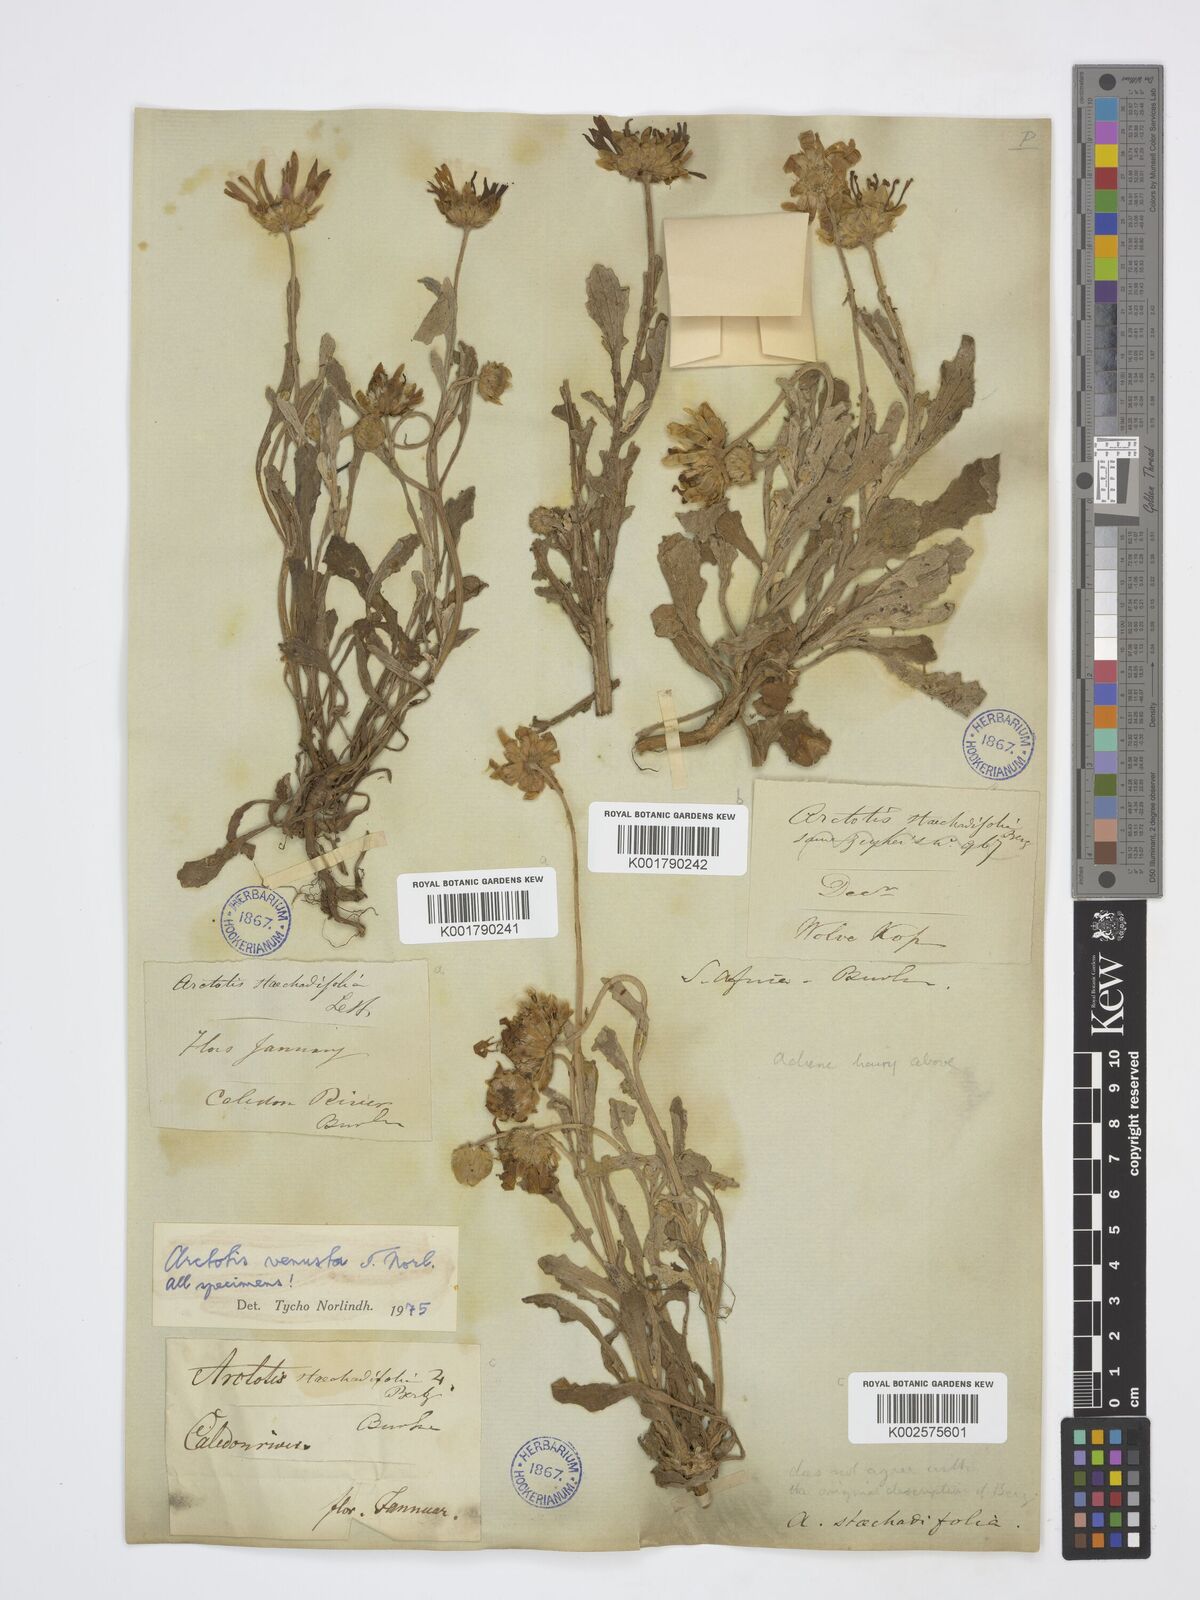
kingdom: Plantae
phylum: Tracheophyta
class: Magnoliopsida
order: Asterales
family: Asteraceae
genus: Arctotis
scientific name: Arctotis venusta
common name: African daisy
